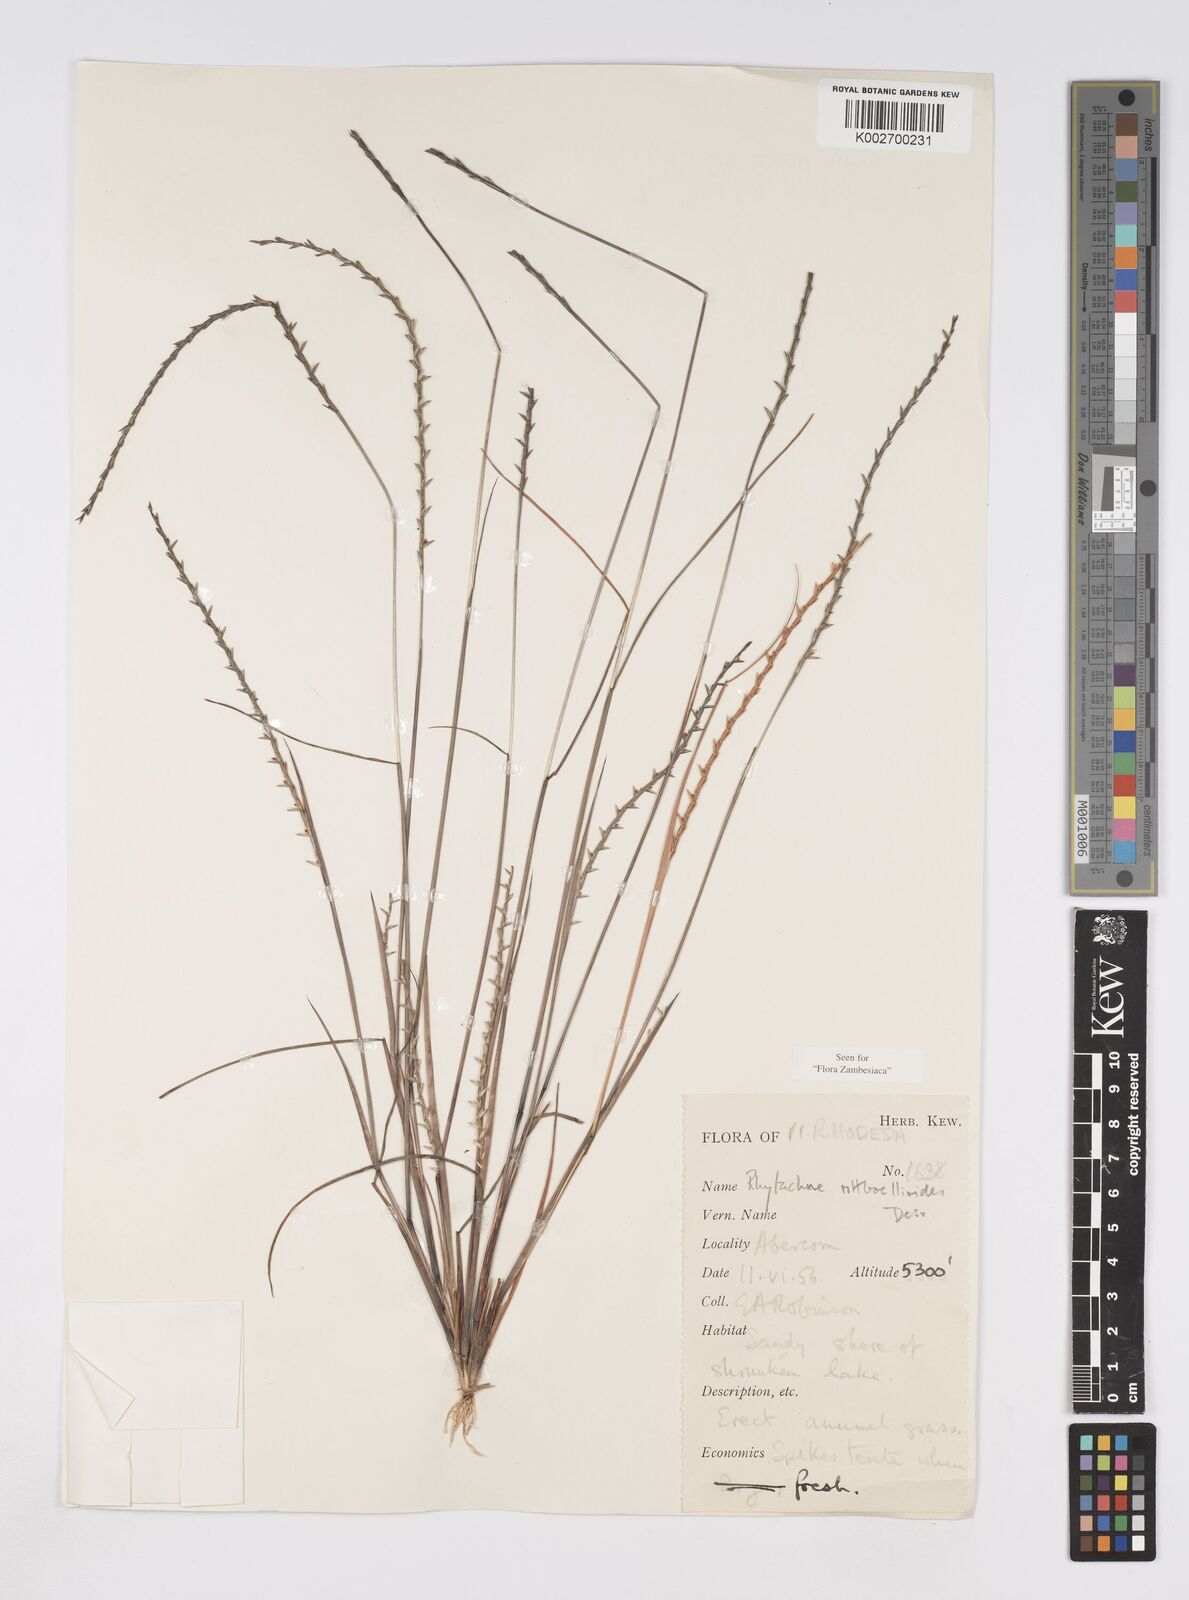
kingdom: Plantae
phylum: Tracheophyta
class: Liliopsida
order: Poales
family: Poaceae
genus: Rhytachne
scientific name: Rhytachne rottboellioides
